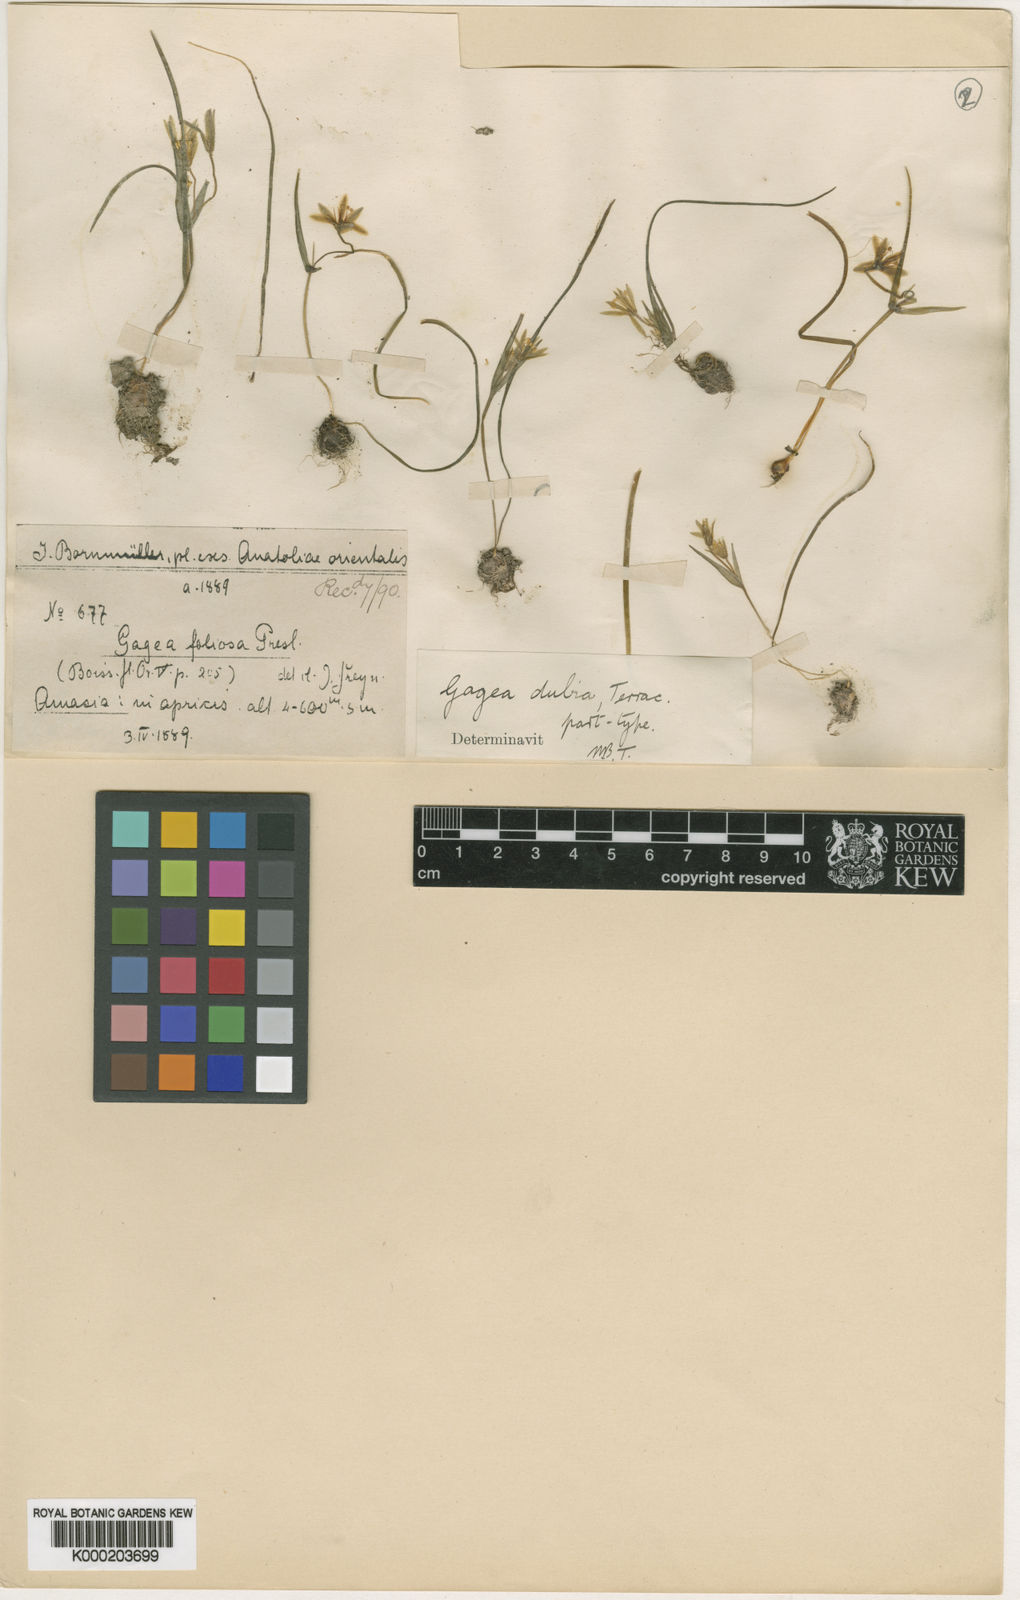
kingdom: Plantae
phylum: Tracheophyta
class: Liliopsida
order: Liliales
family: Liliaceae
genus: Gagea
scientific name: Gagea dubia
